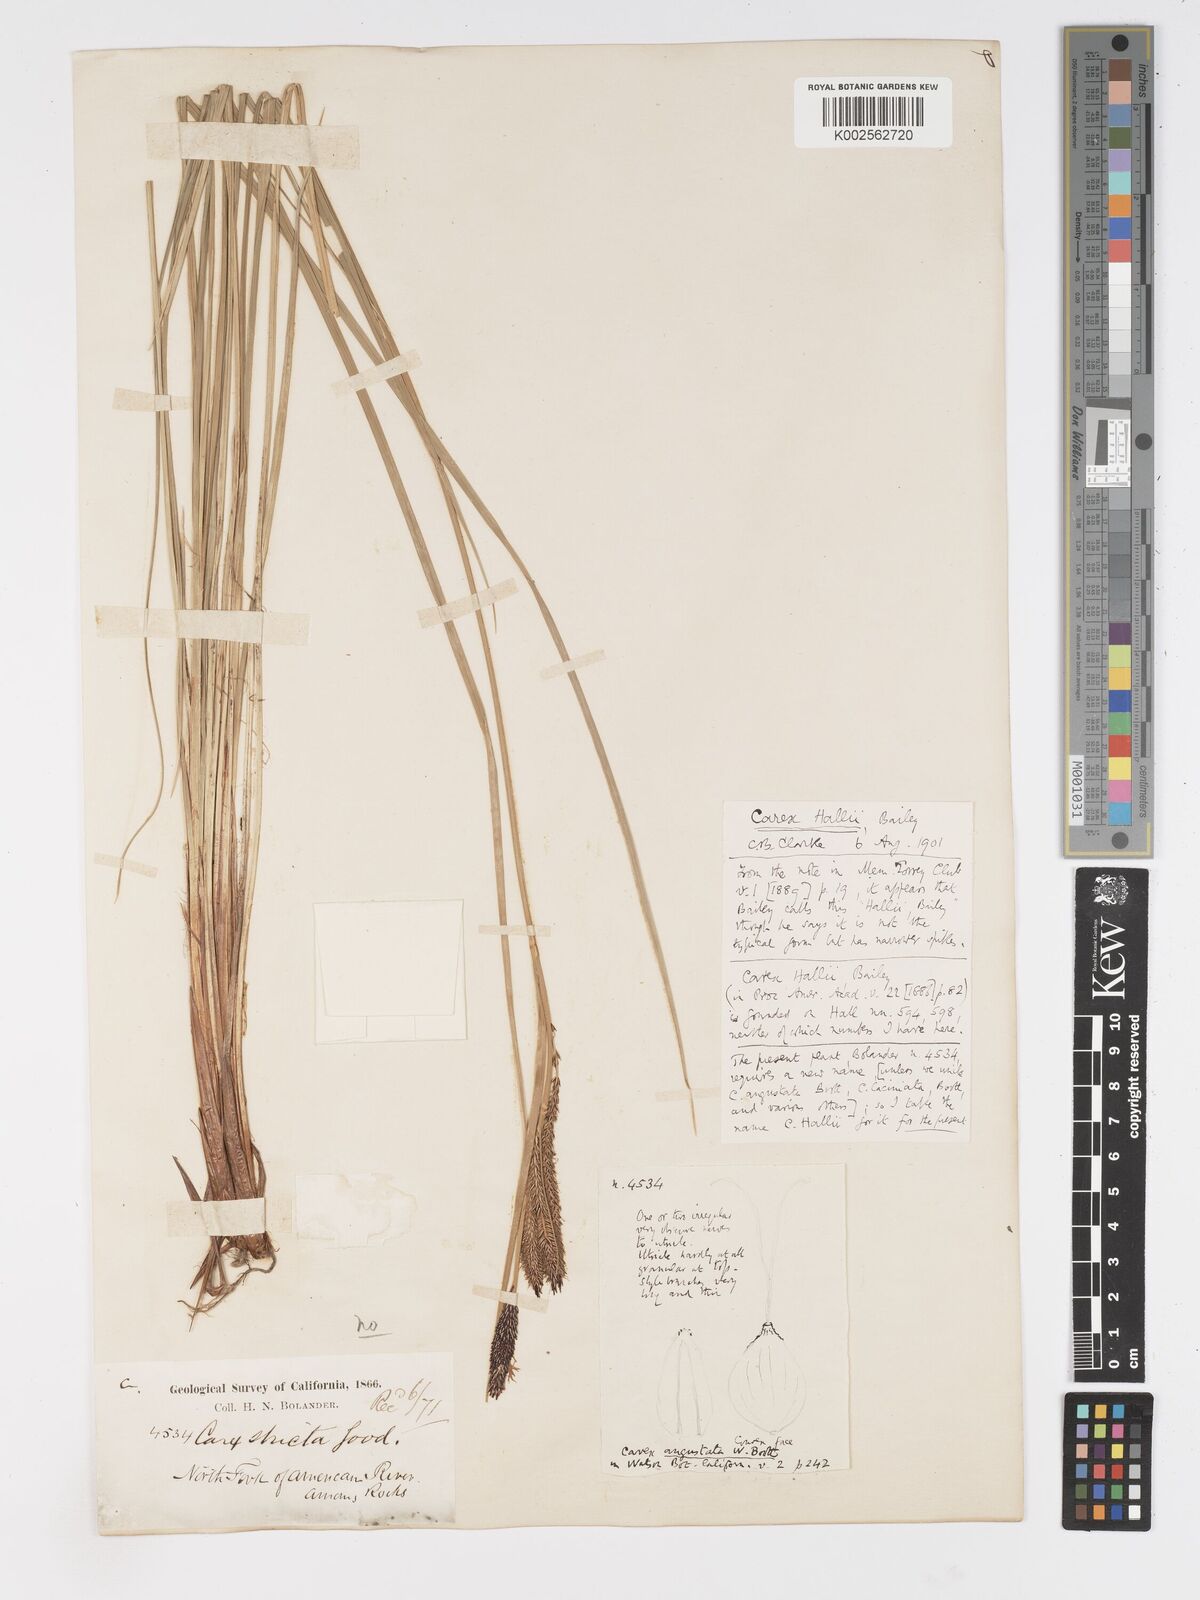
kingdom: Plantae
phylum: Tracheophyta
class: Liliopsida
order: Poales
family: Cyperaceae
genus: Carex
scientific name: Carex nudata
